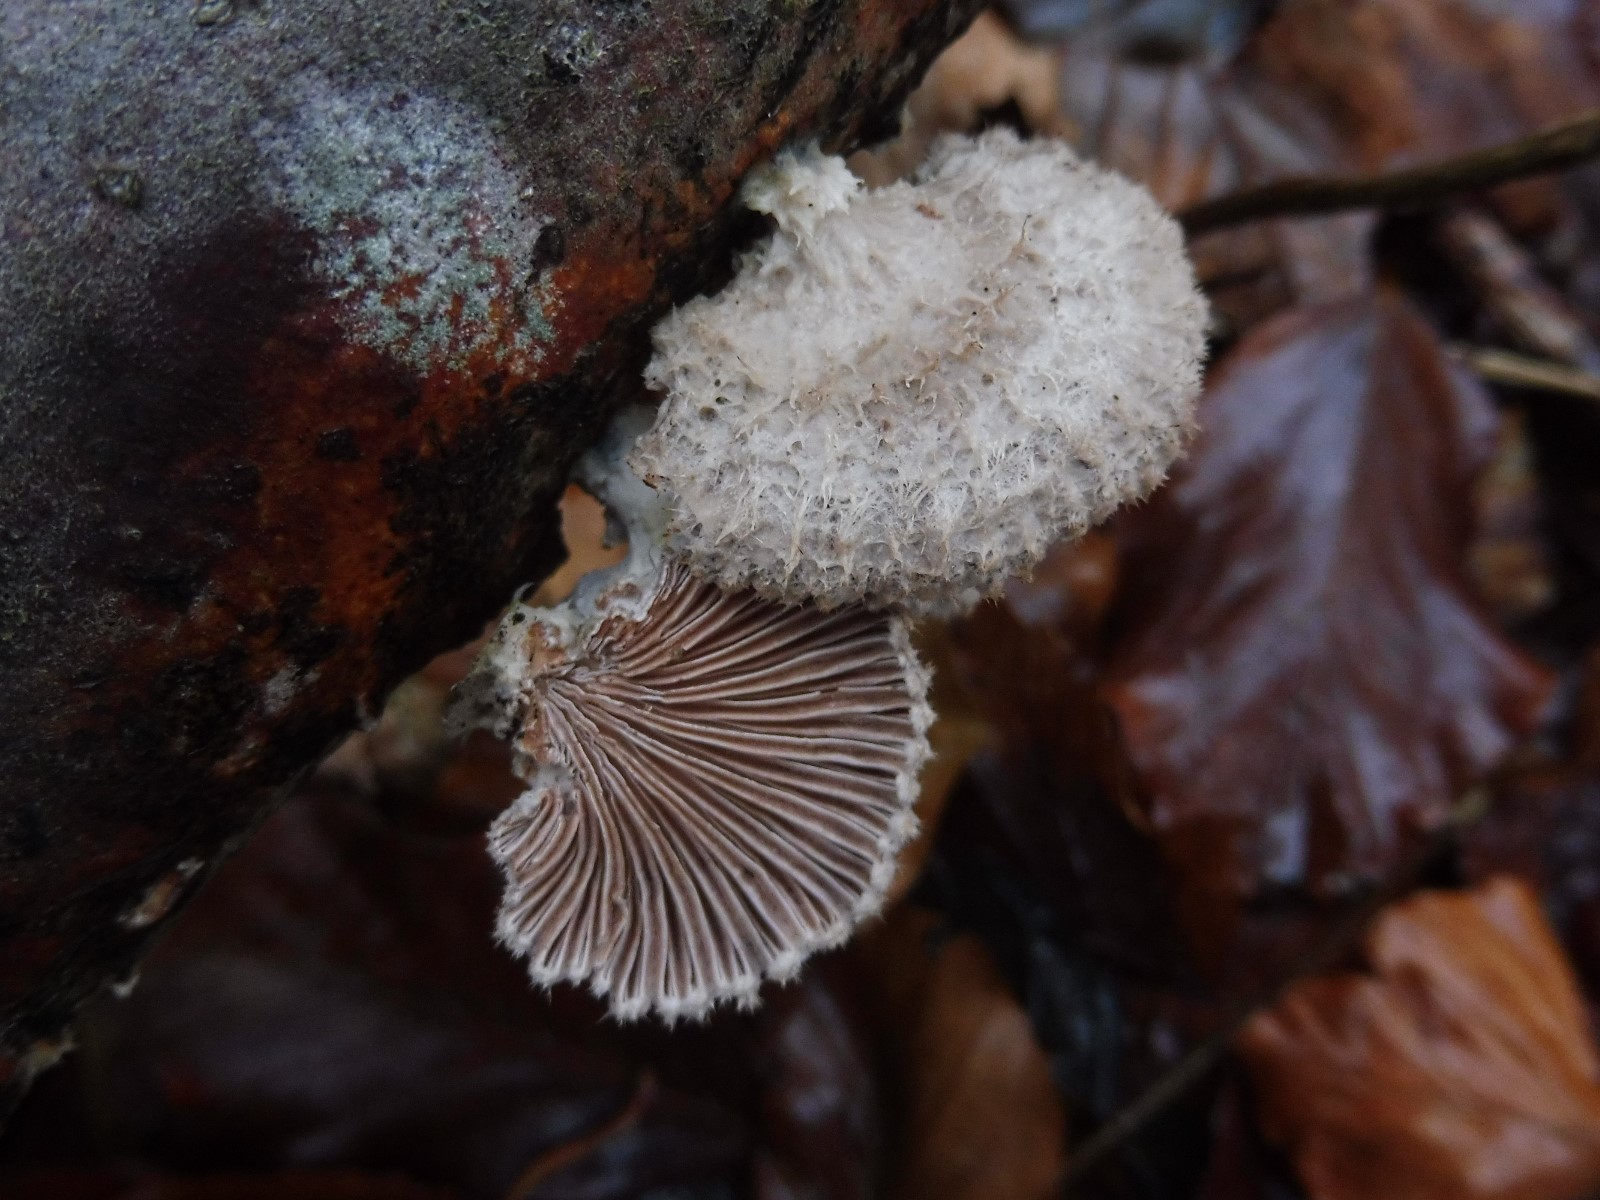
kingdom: Fungi
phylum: Basidiomycota
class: Agaricomycetes
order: Agaricales
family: Schizophyllaceae
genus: Schizophyllum
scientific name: Schizophyllum commune
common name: kløvblad
